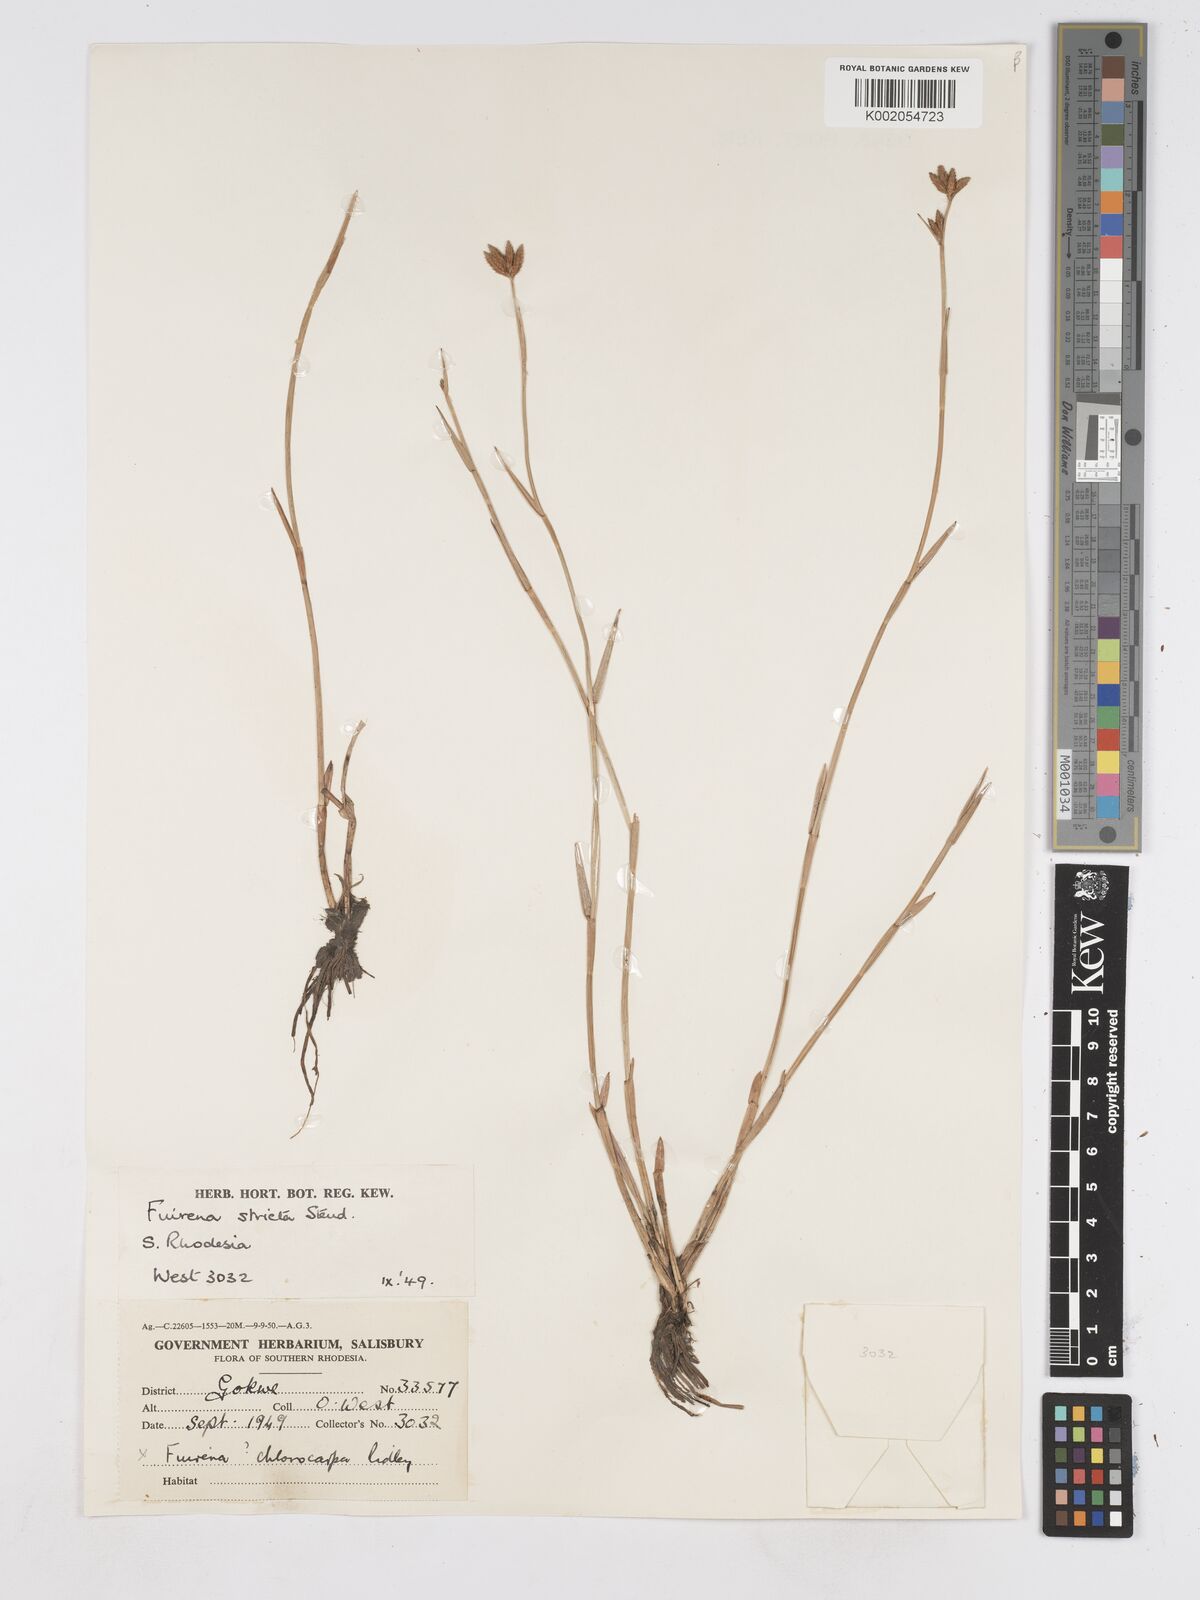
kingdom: Plantae
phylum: Tracheophyta
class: Liliopsida
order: Poales
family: Cyperaceae
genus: Fuirena
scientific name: Fuirena stricta
